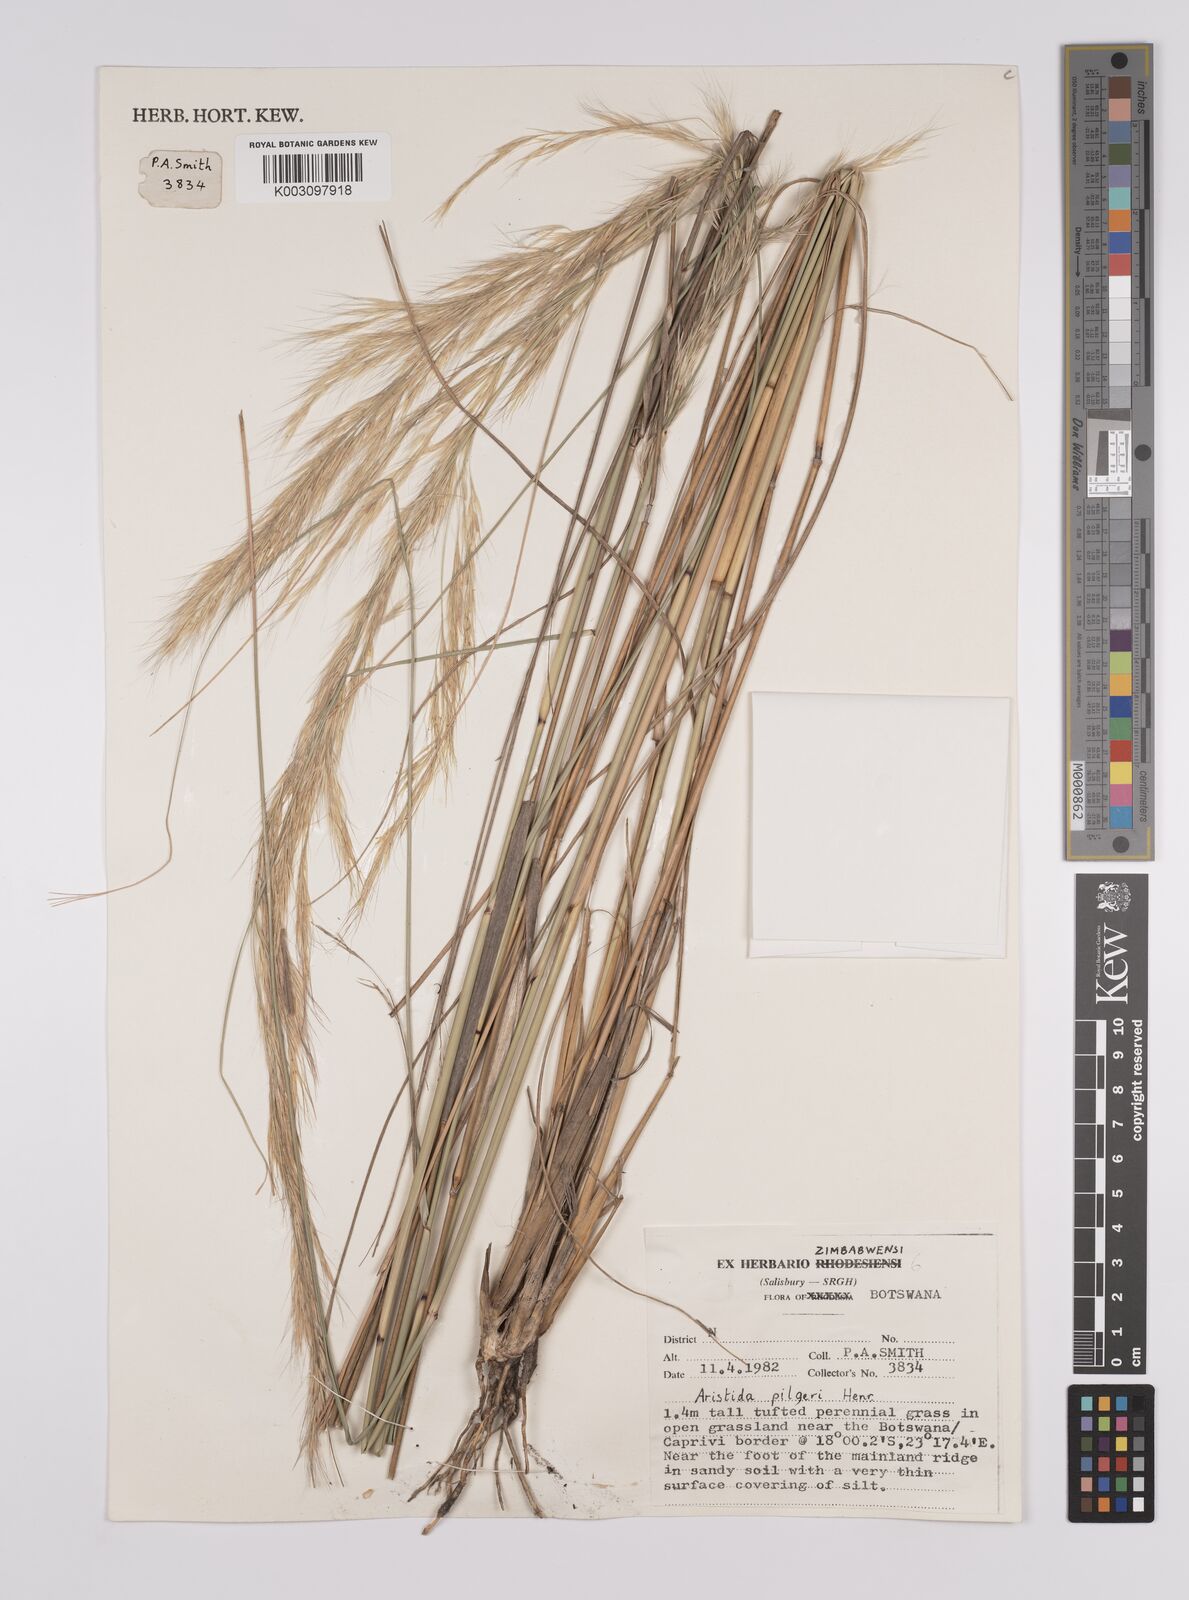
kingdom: Plantae
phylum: Tracheophyta
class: Liliopsida
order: Poales
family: Poaceae
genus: Aristida
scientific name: Aristida pilgeri
